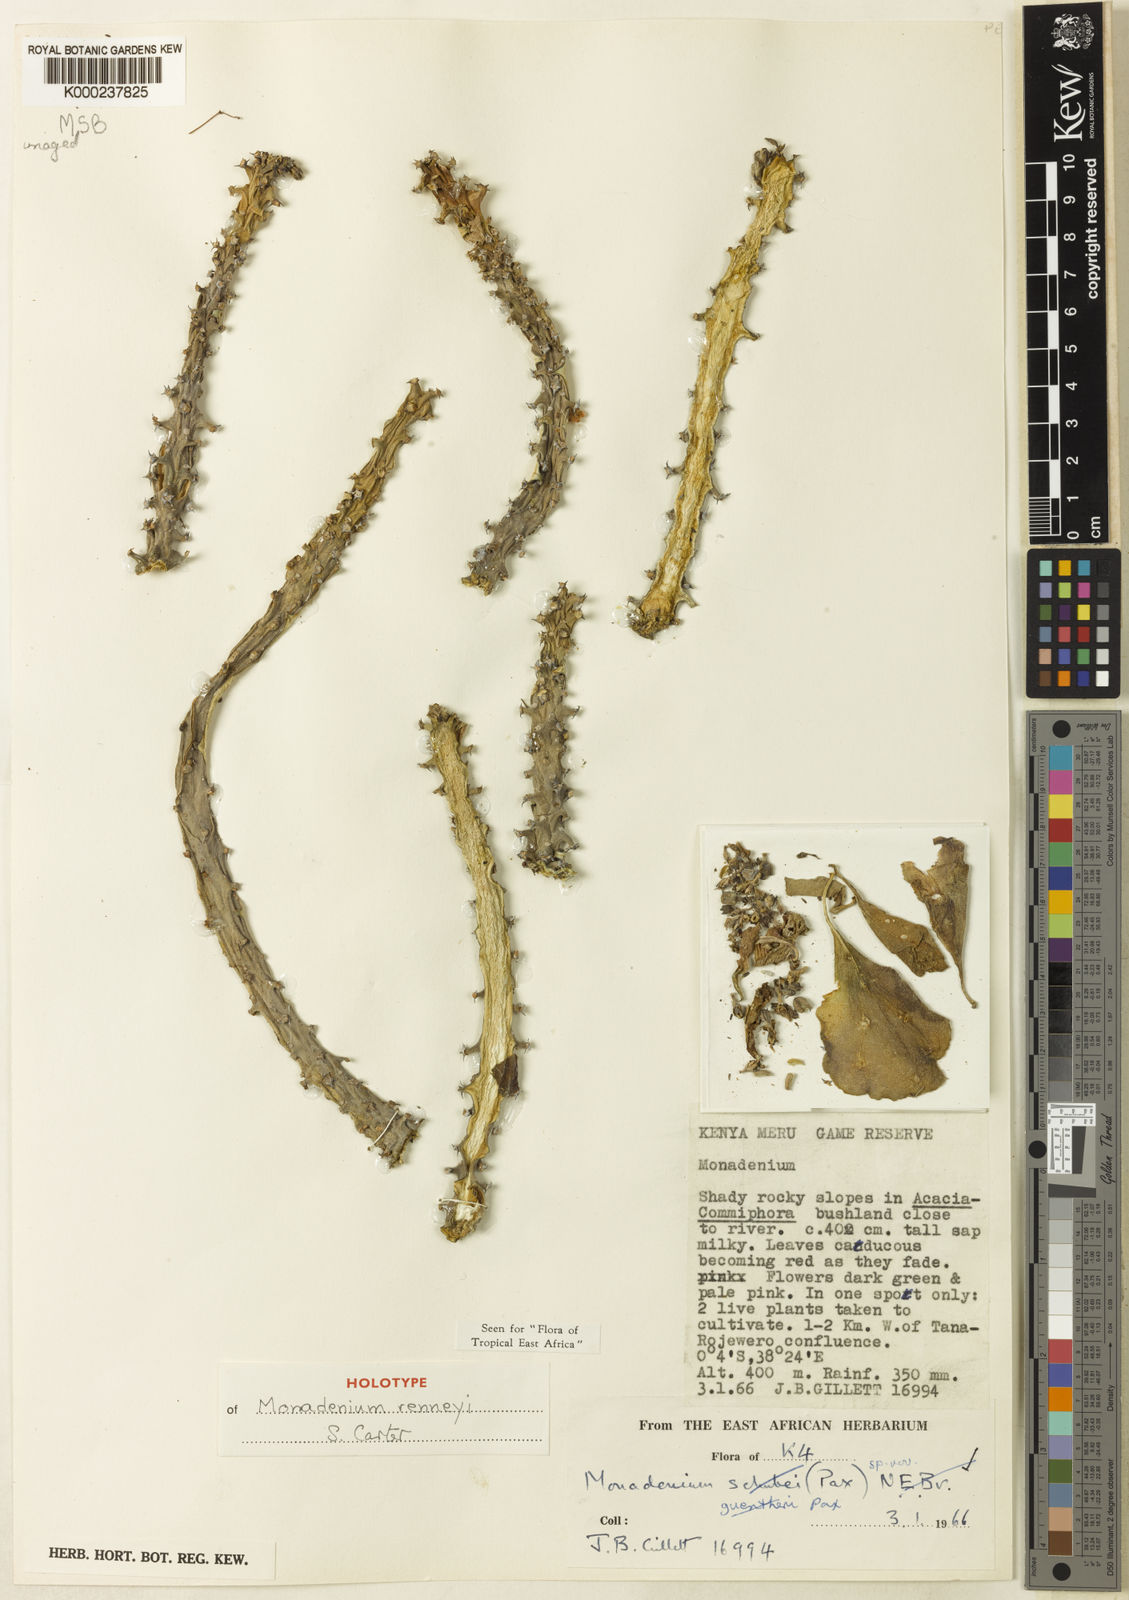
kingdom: Plantae
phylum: Tracheophyta
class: Magnoliopsida
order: Malpighiales
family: Euphorbiaceae
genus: Euphorbia
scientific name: Euphorbia renneyi
